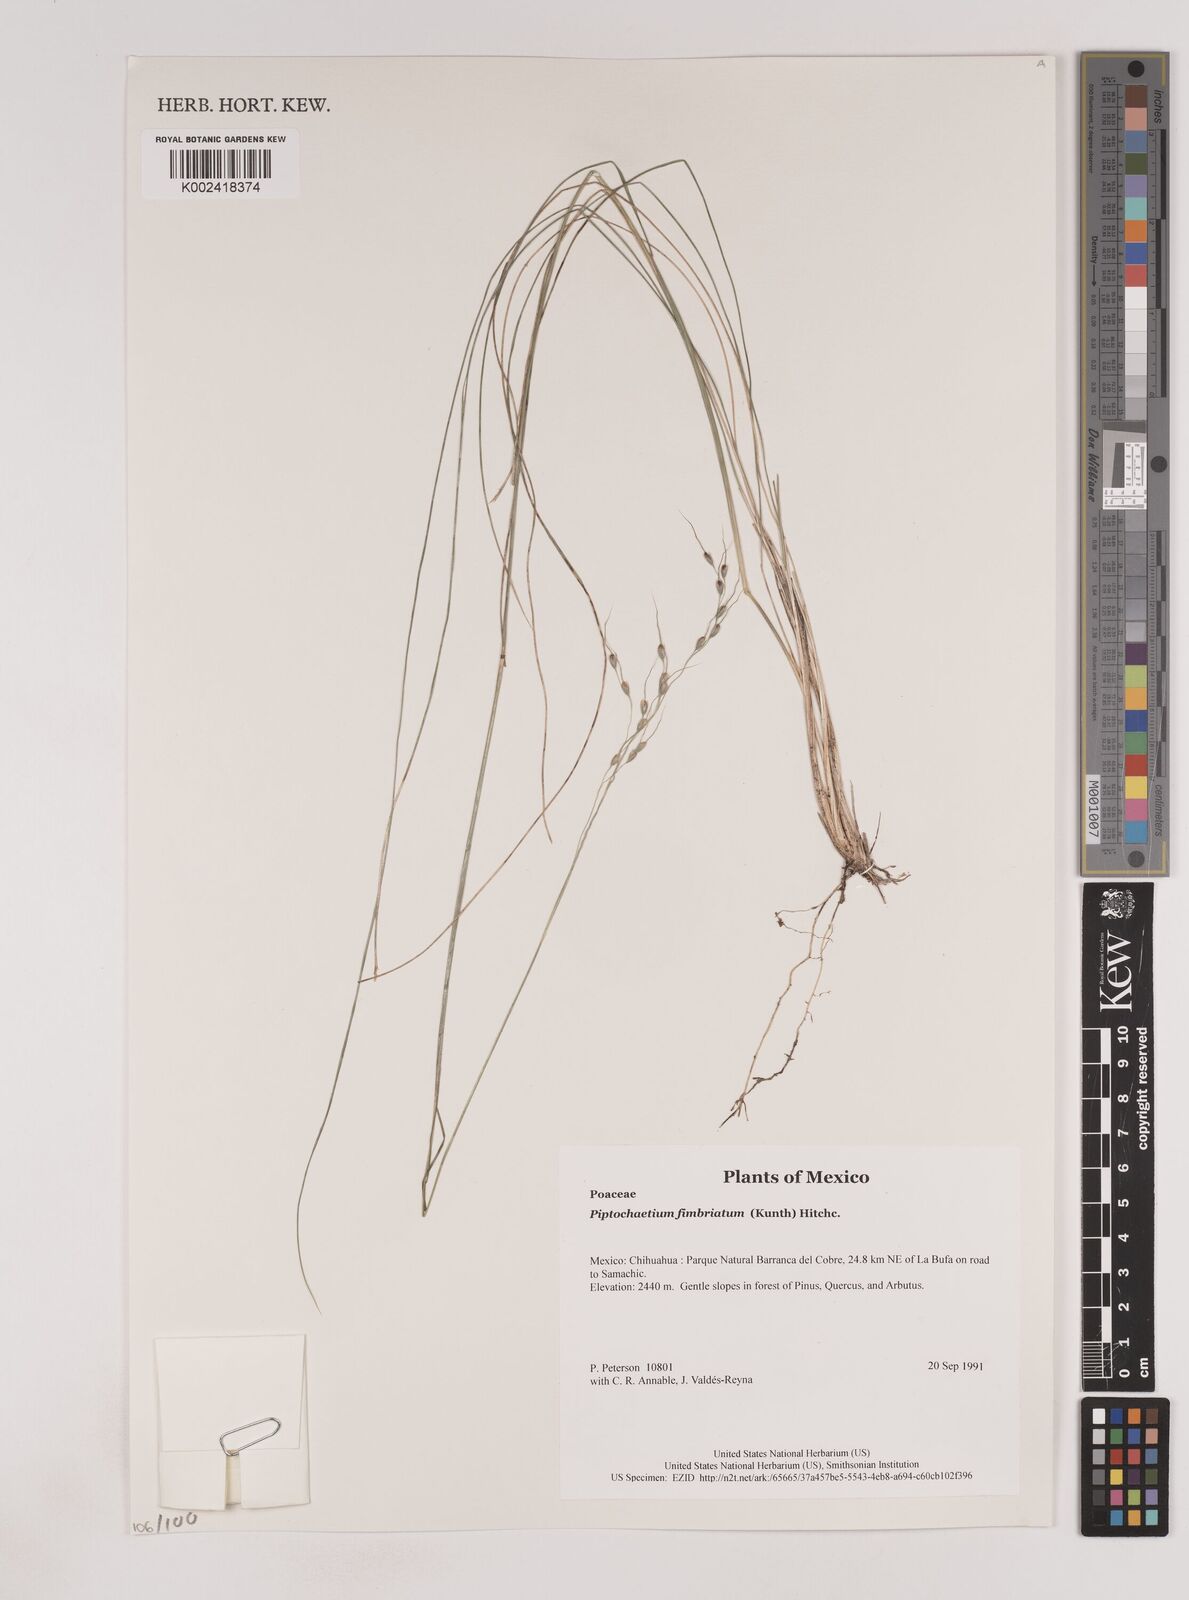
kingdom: Plantae
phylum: Tracheophyta
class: Liliopsida
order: Poales
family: Poaceae
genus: Piptochaetium
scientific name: Piptochaetium fimbriatum
